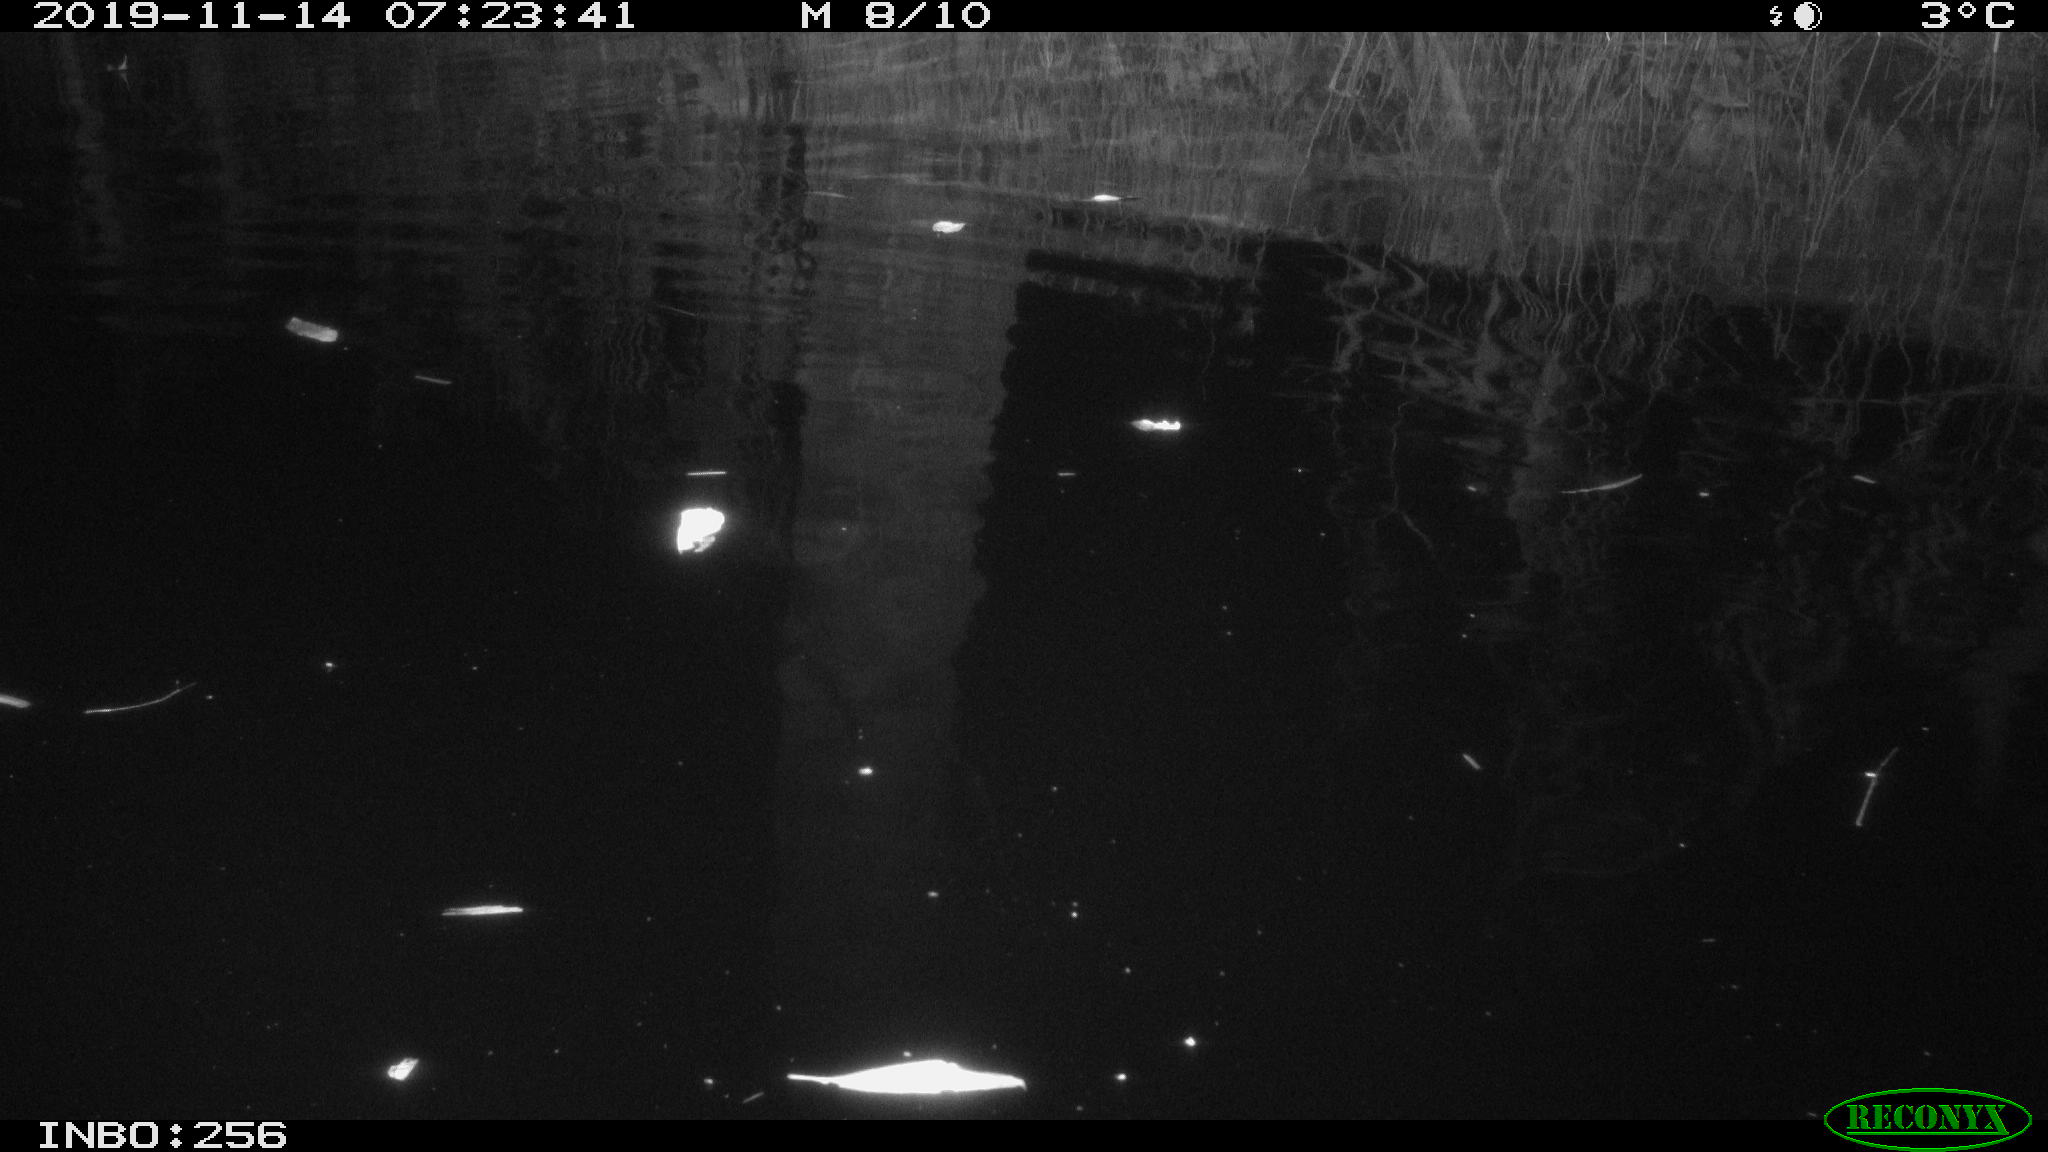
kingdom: Animalia
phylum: Chordata
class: Mammalia
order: Rodentia
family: Muridae
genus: Rattus
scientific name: Rattus norvegicus
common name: Brown rat
